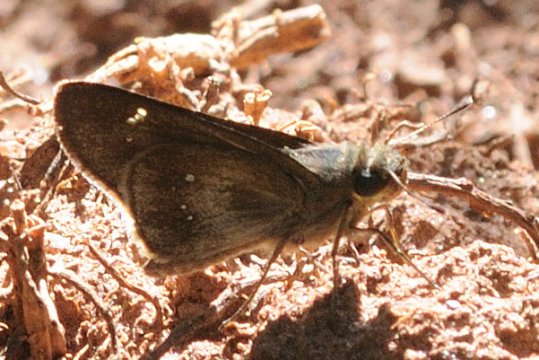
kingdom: Animalia
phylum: Arthropoda
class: Insecta
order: Lepidoptera
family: Hesperiidae
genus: Baoris
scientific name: Baoris fatuellus
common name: Long-horned Swift
